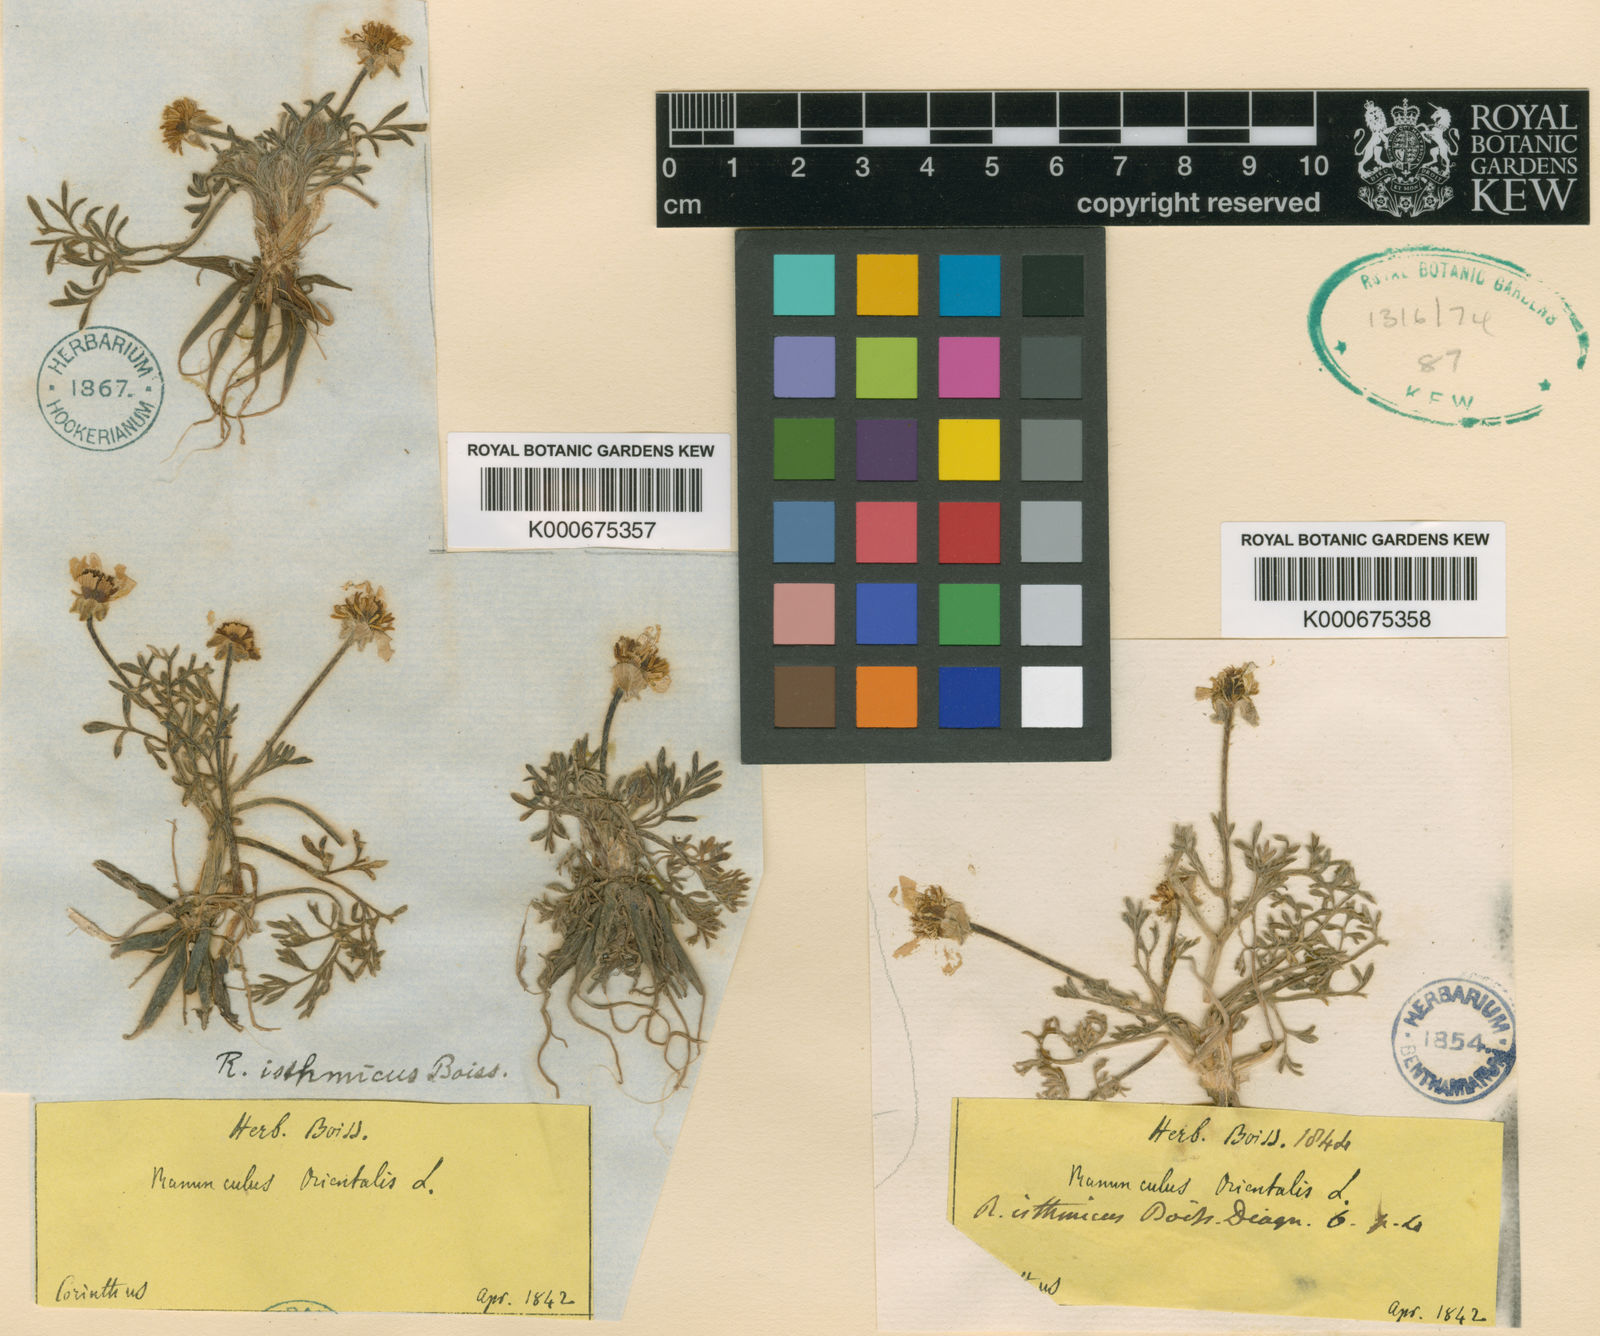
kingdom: Plantae
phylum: Tracheophyta
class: Magnoliopsida
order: Ranunculales
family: Ranunculaceae
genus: Ranunculus
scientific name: Ranunculus isthmicus
